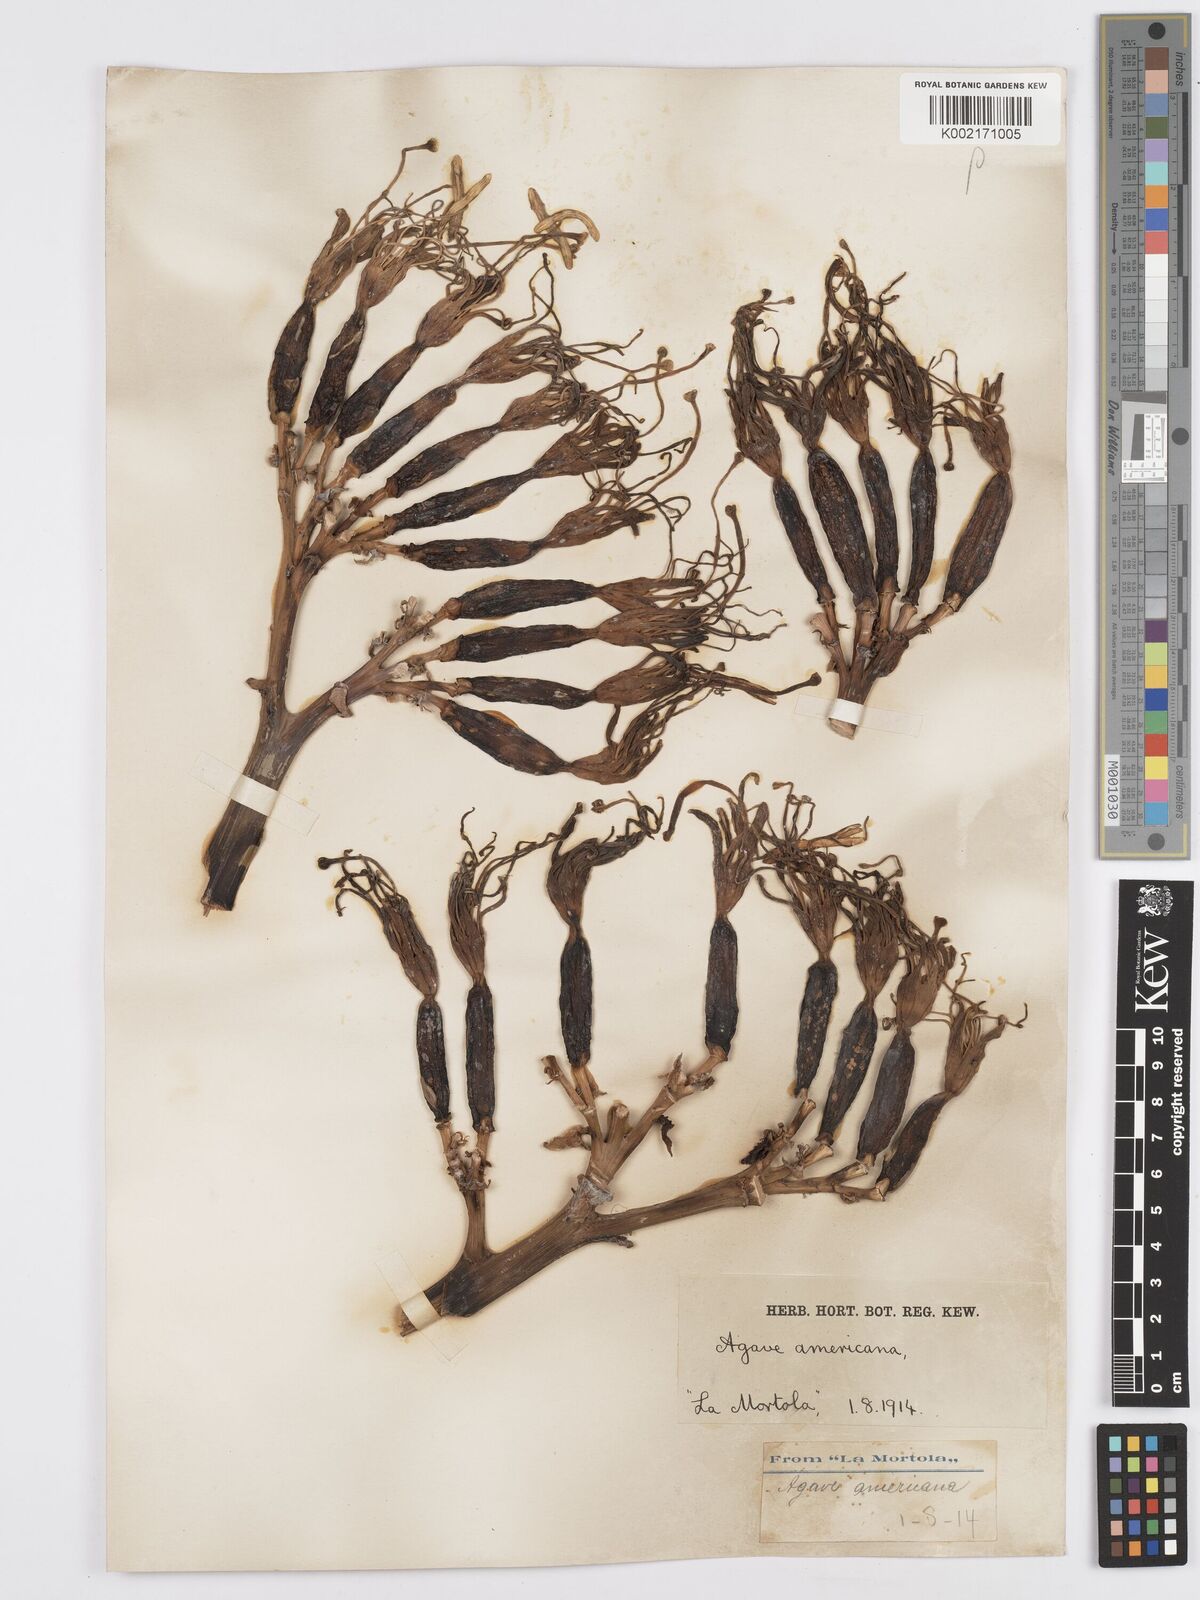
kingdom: Plantae
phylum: Tracheophyta
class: Liliopsida
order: Asparagales
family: Asparagaceae
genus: Agave
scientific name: Agave americana
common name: Centuryplant
